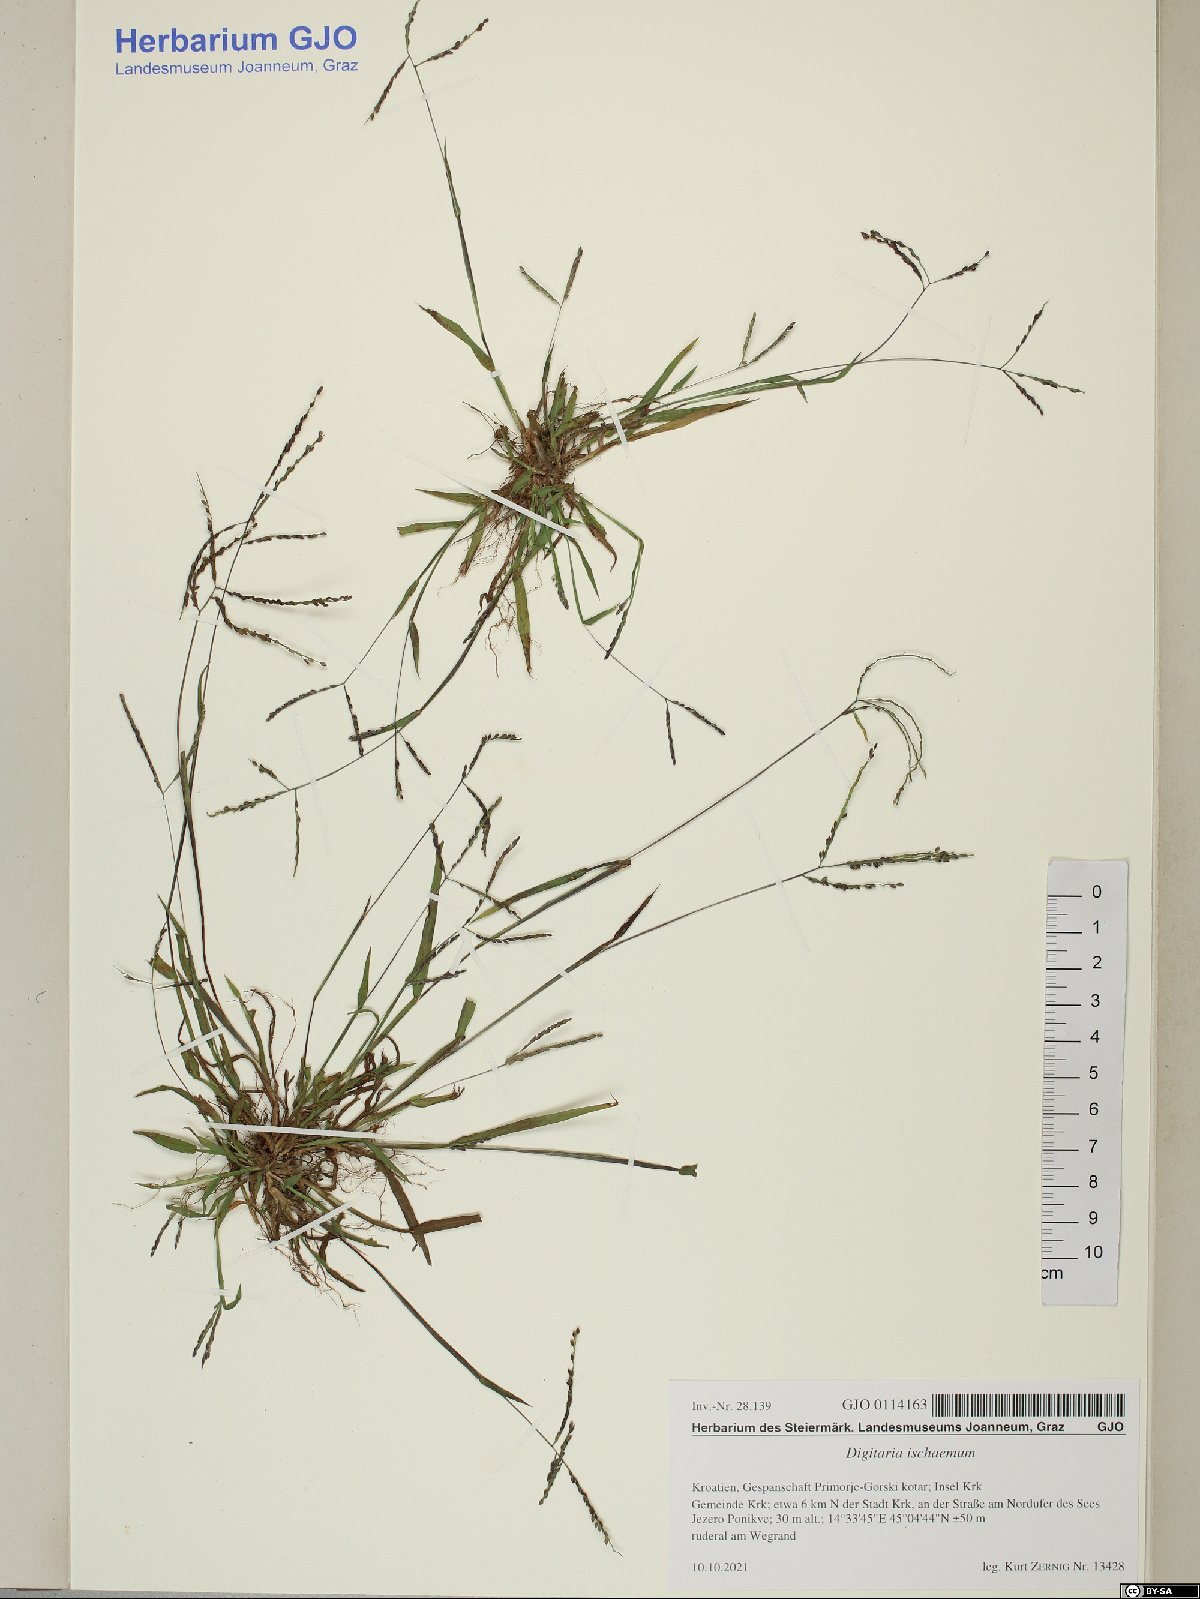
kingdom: Plantae
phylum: Tracheophyta
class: Liliopsida
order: Poales
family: Poaceae
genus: Digitaria
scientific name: Digitaria ischaemum
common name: Smooth crabgrass
